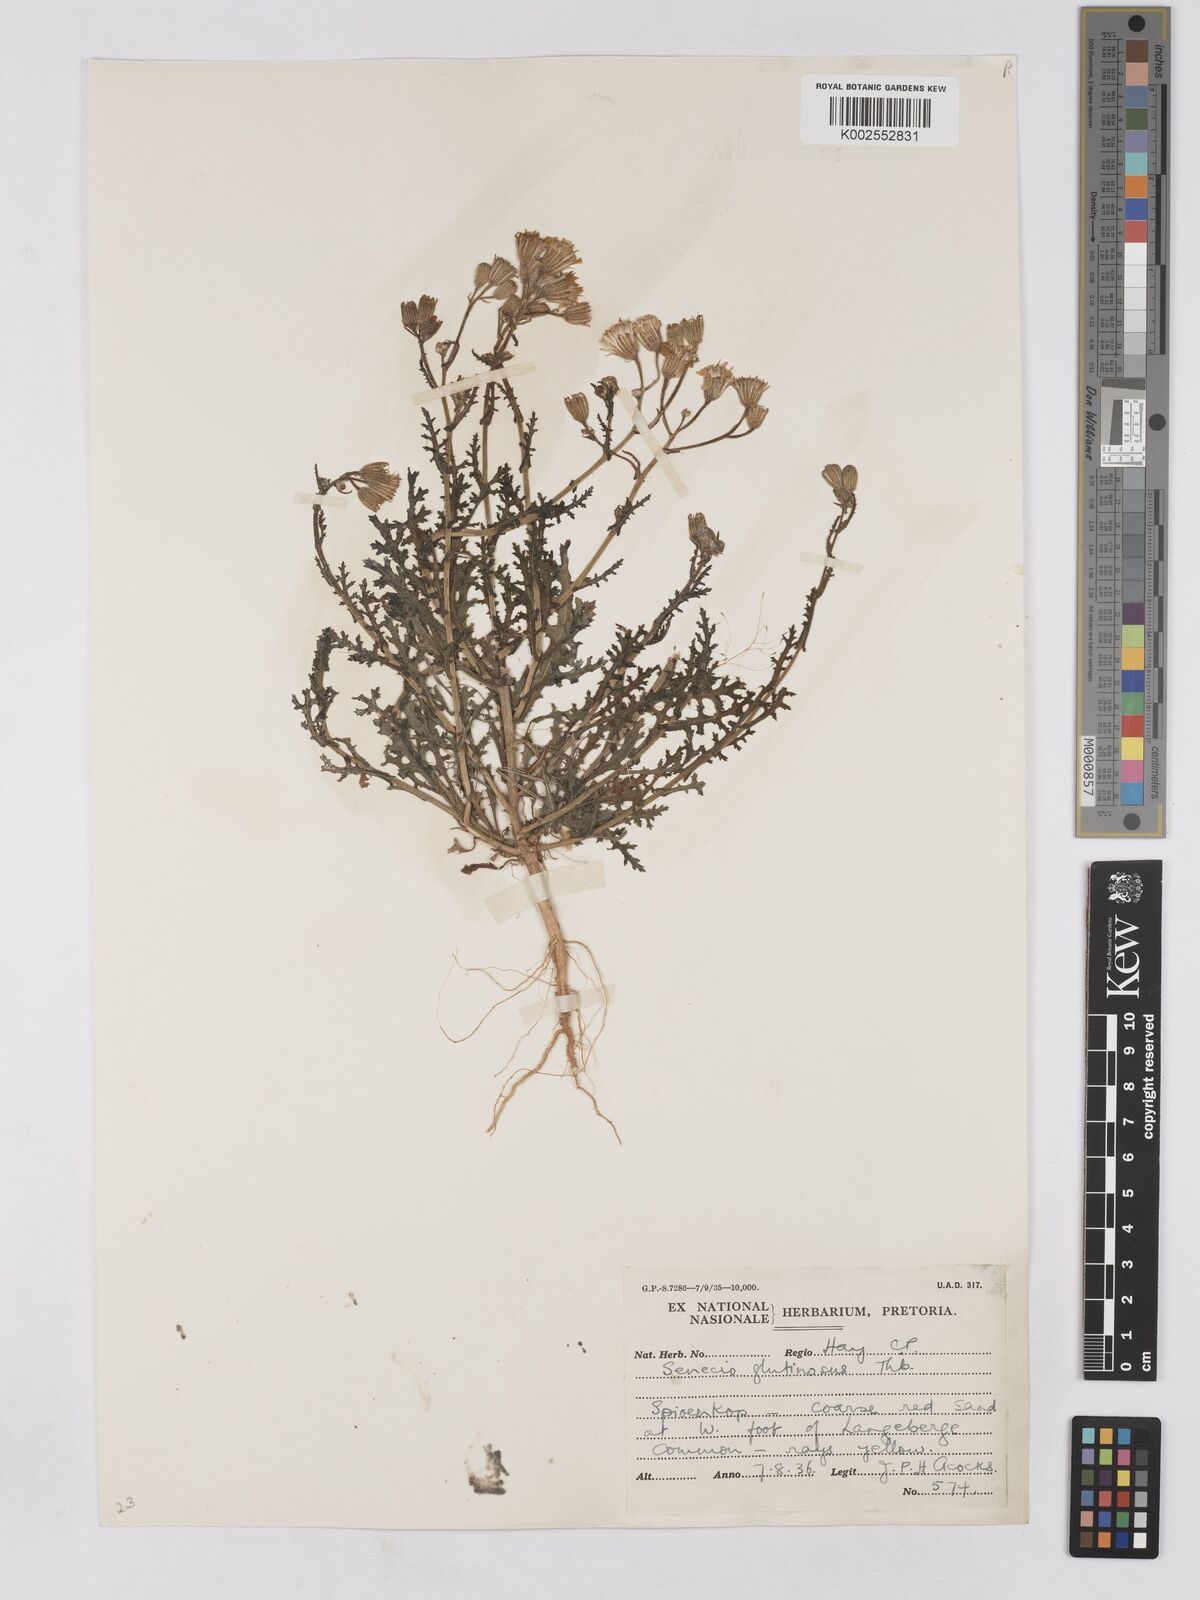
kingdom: Plantae
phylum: Tracheophyta
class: Magnoliopsida
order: Asterales
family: Asteraceae
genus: Senecio
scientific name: Senecio consanguineus
